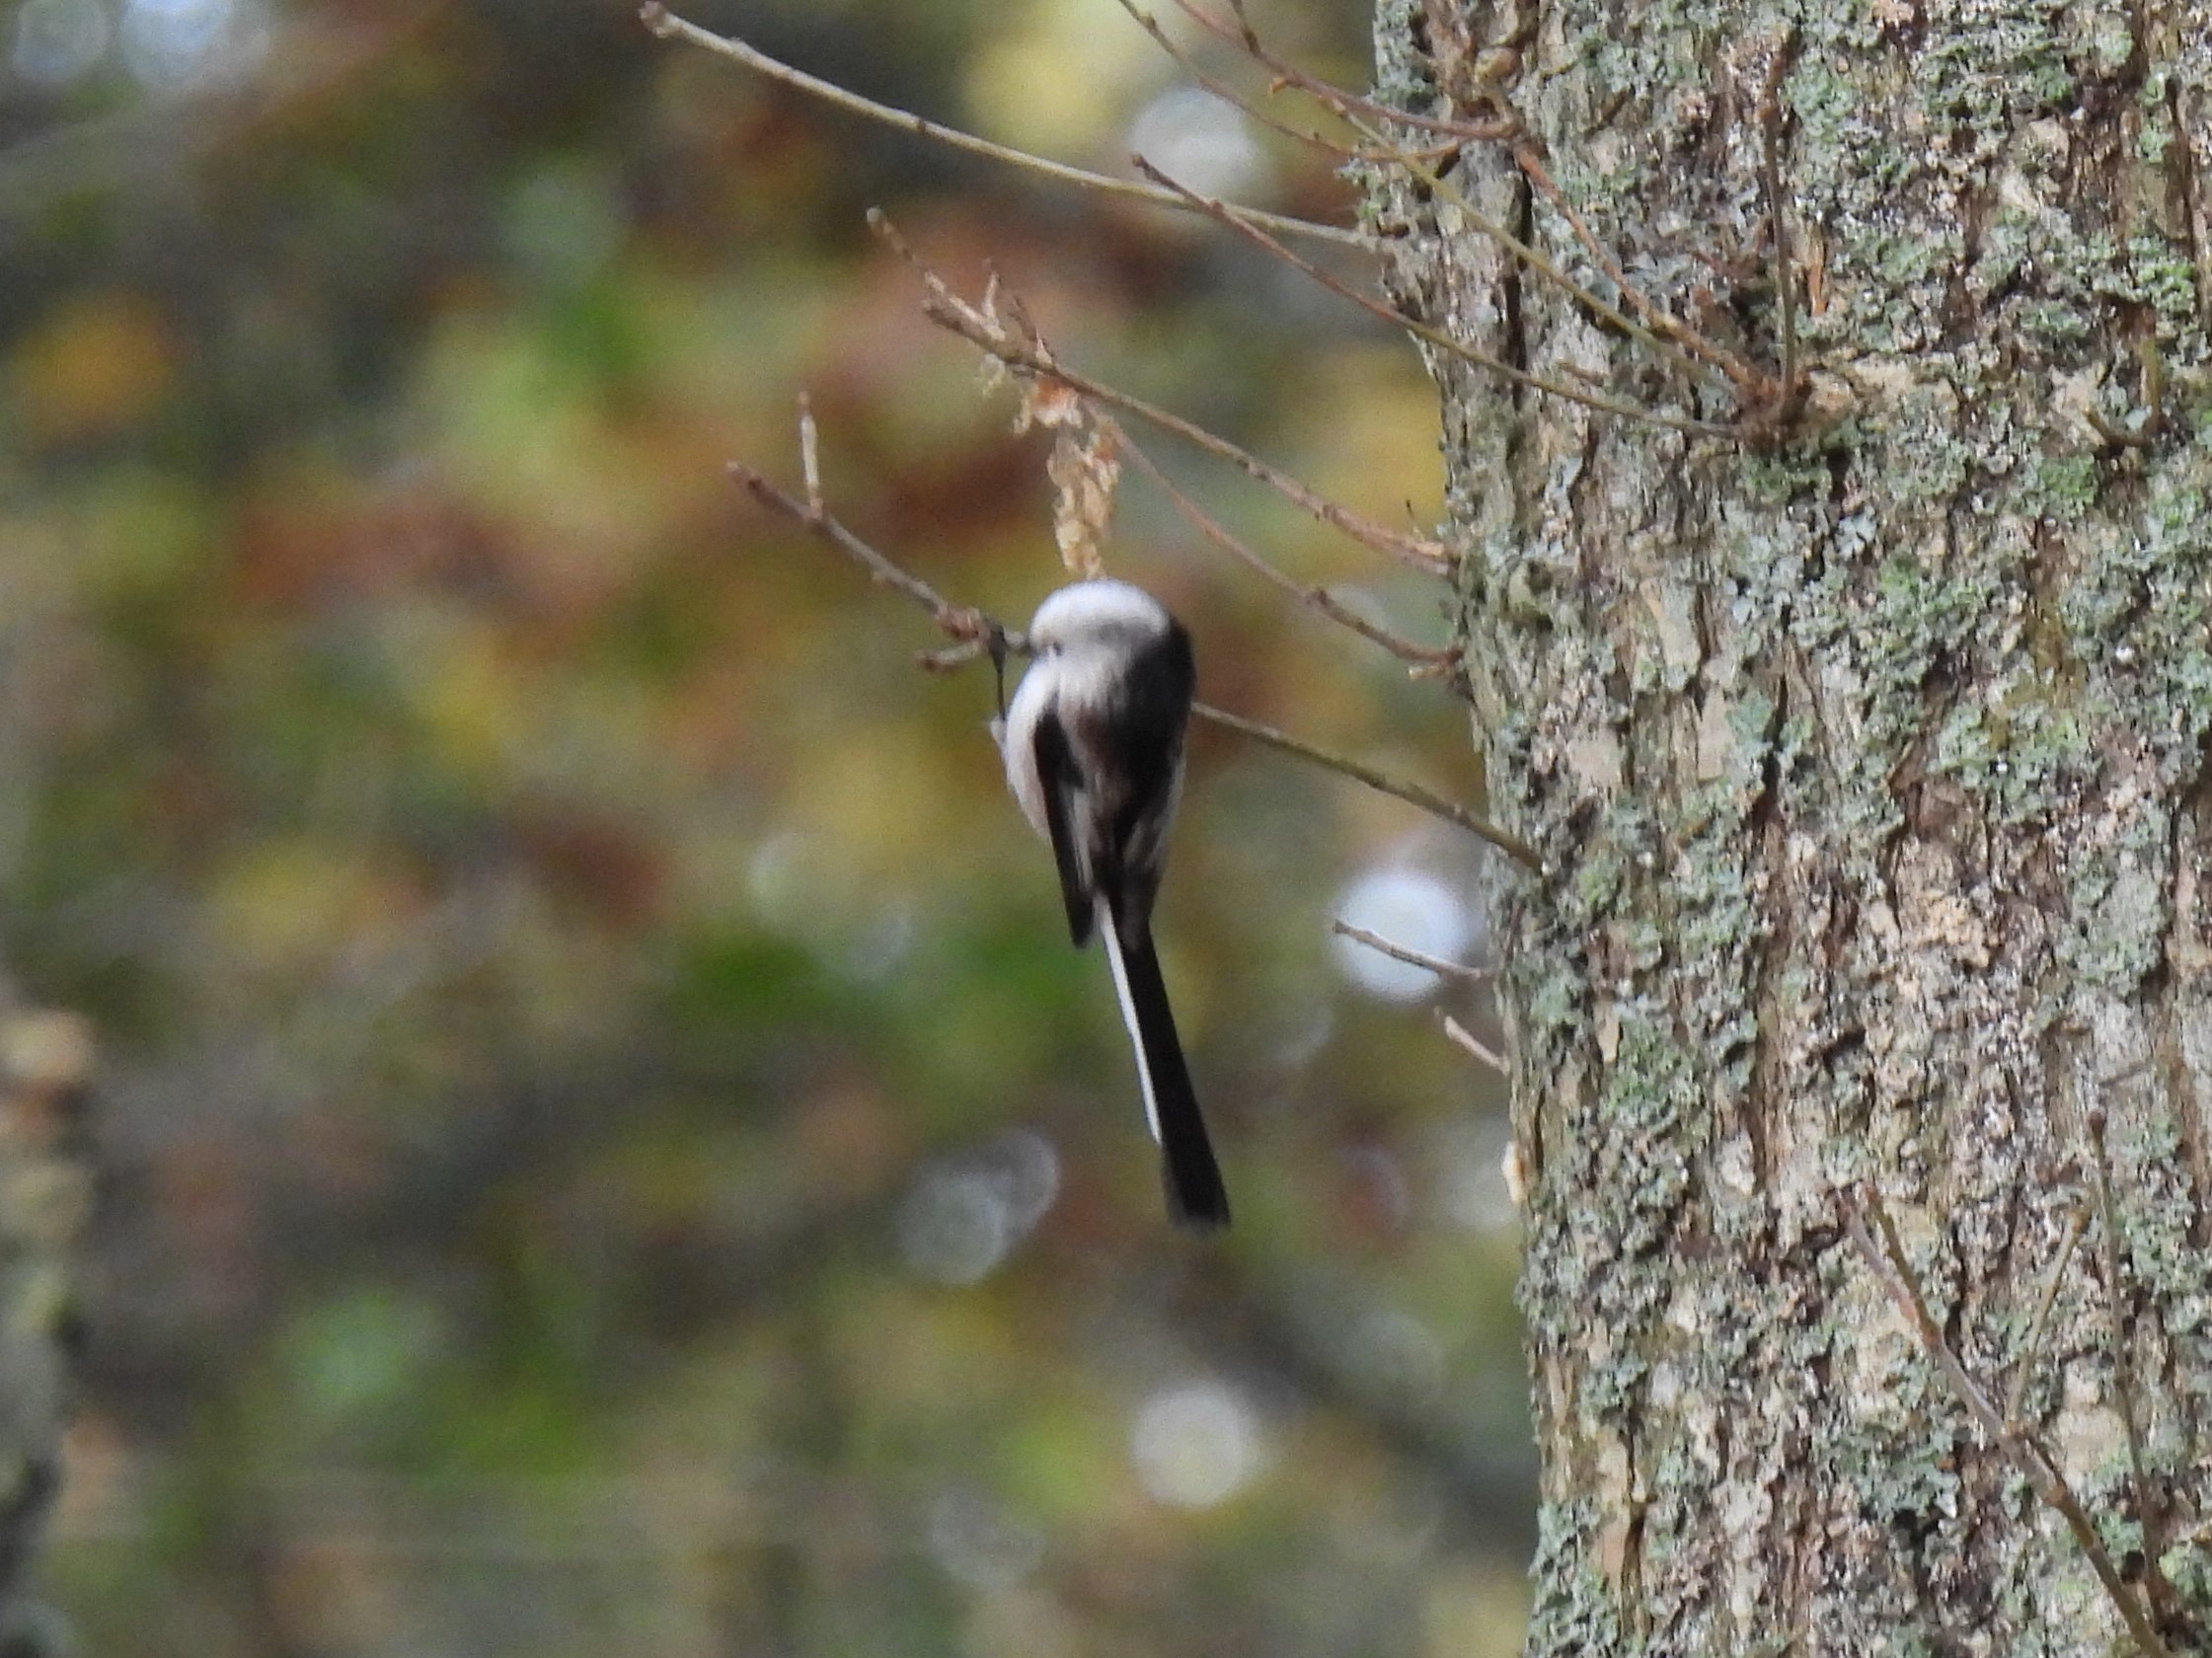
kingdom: Animalia
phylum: Chordata
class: Aves
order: Passeriformes
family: Aegithalidae
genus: Aegithalos
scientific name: Aegithalos caudatus
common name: Halemejse
